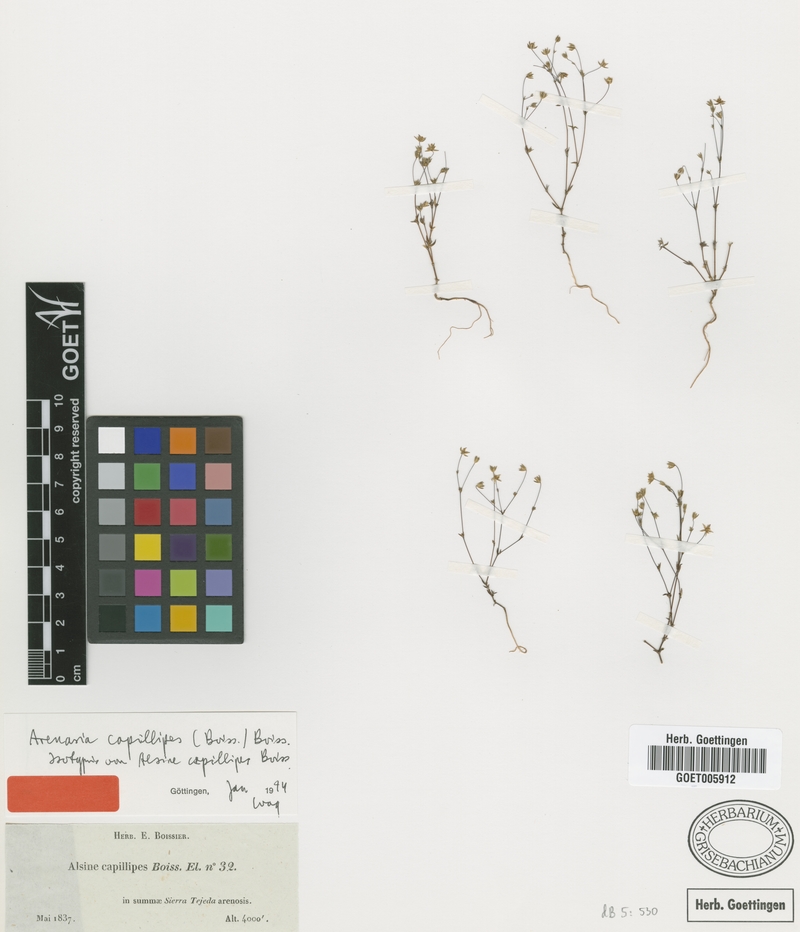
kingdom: Plantae
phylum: Tracheophyta
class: Magnoliopsida
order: Caryophyllales
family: Caryophyllaceae
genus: Arenaria
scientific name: Arenaria capillipes
